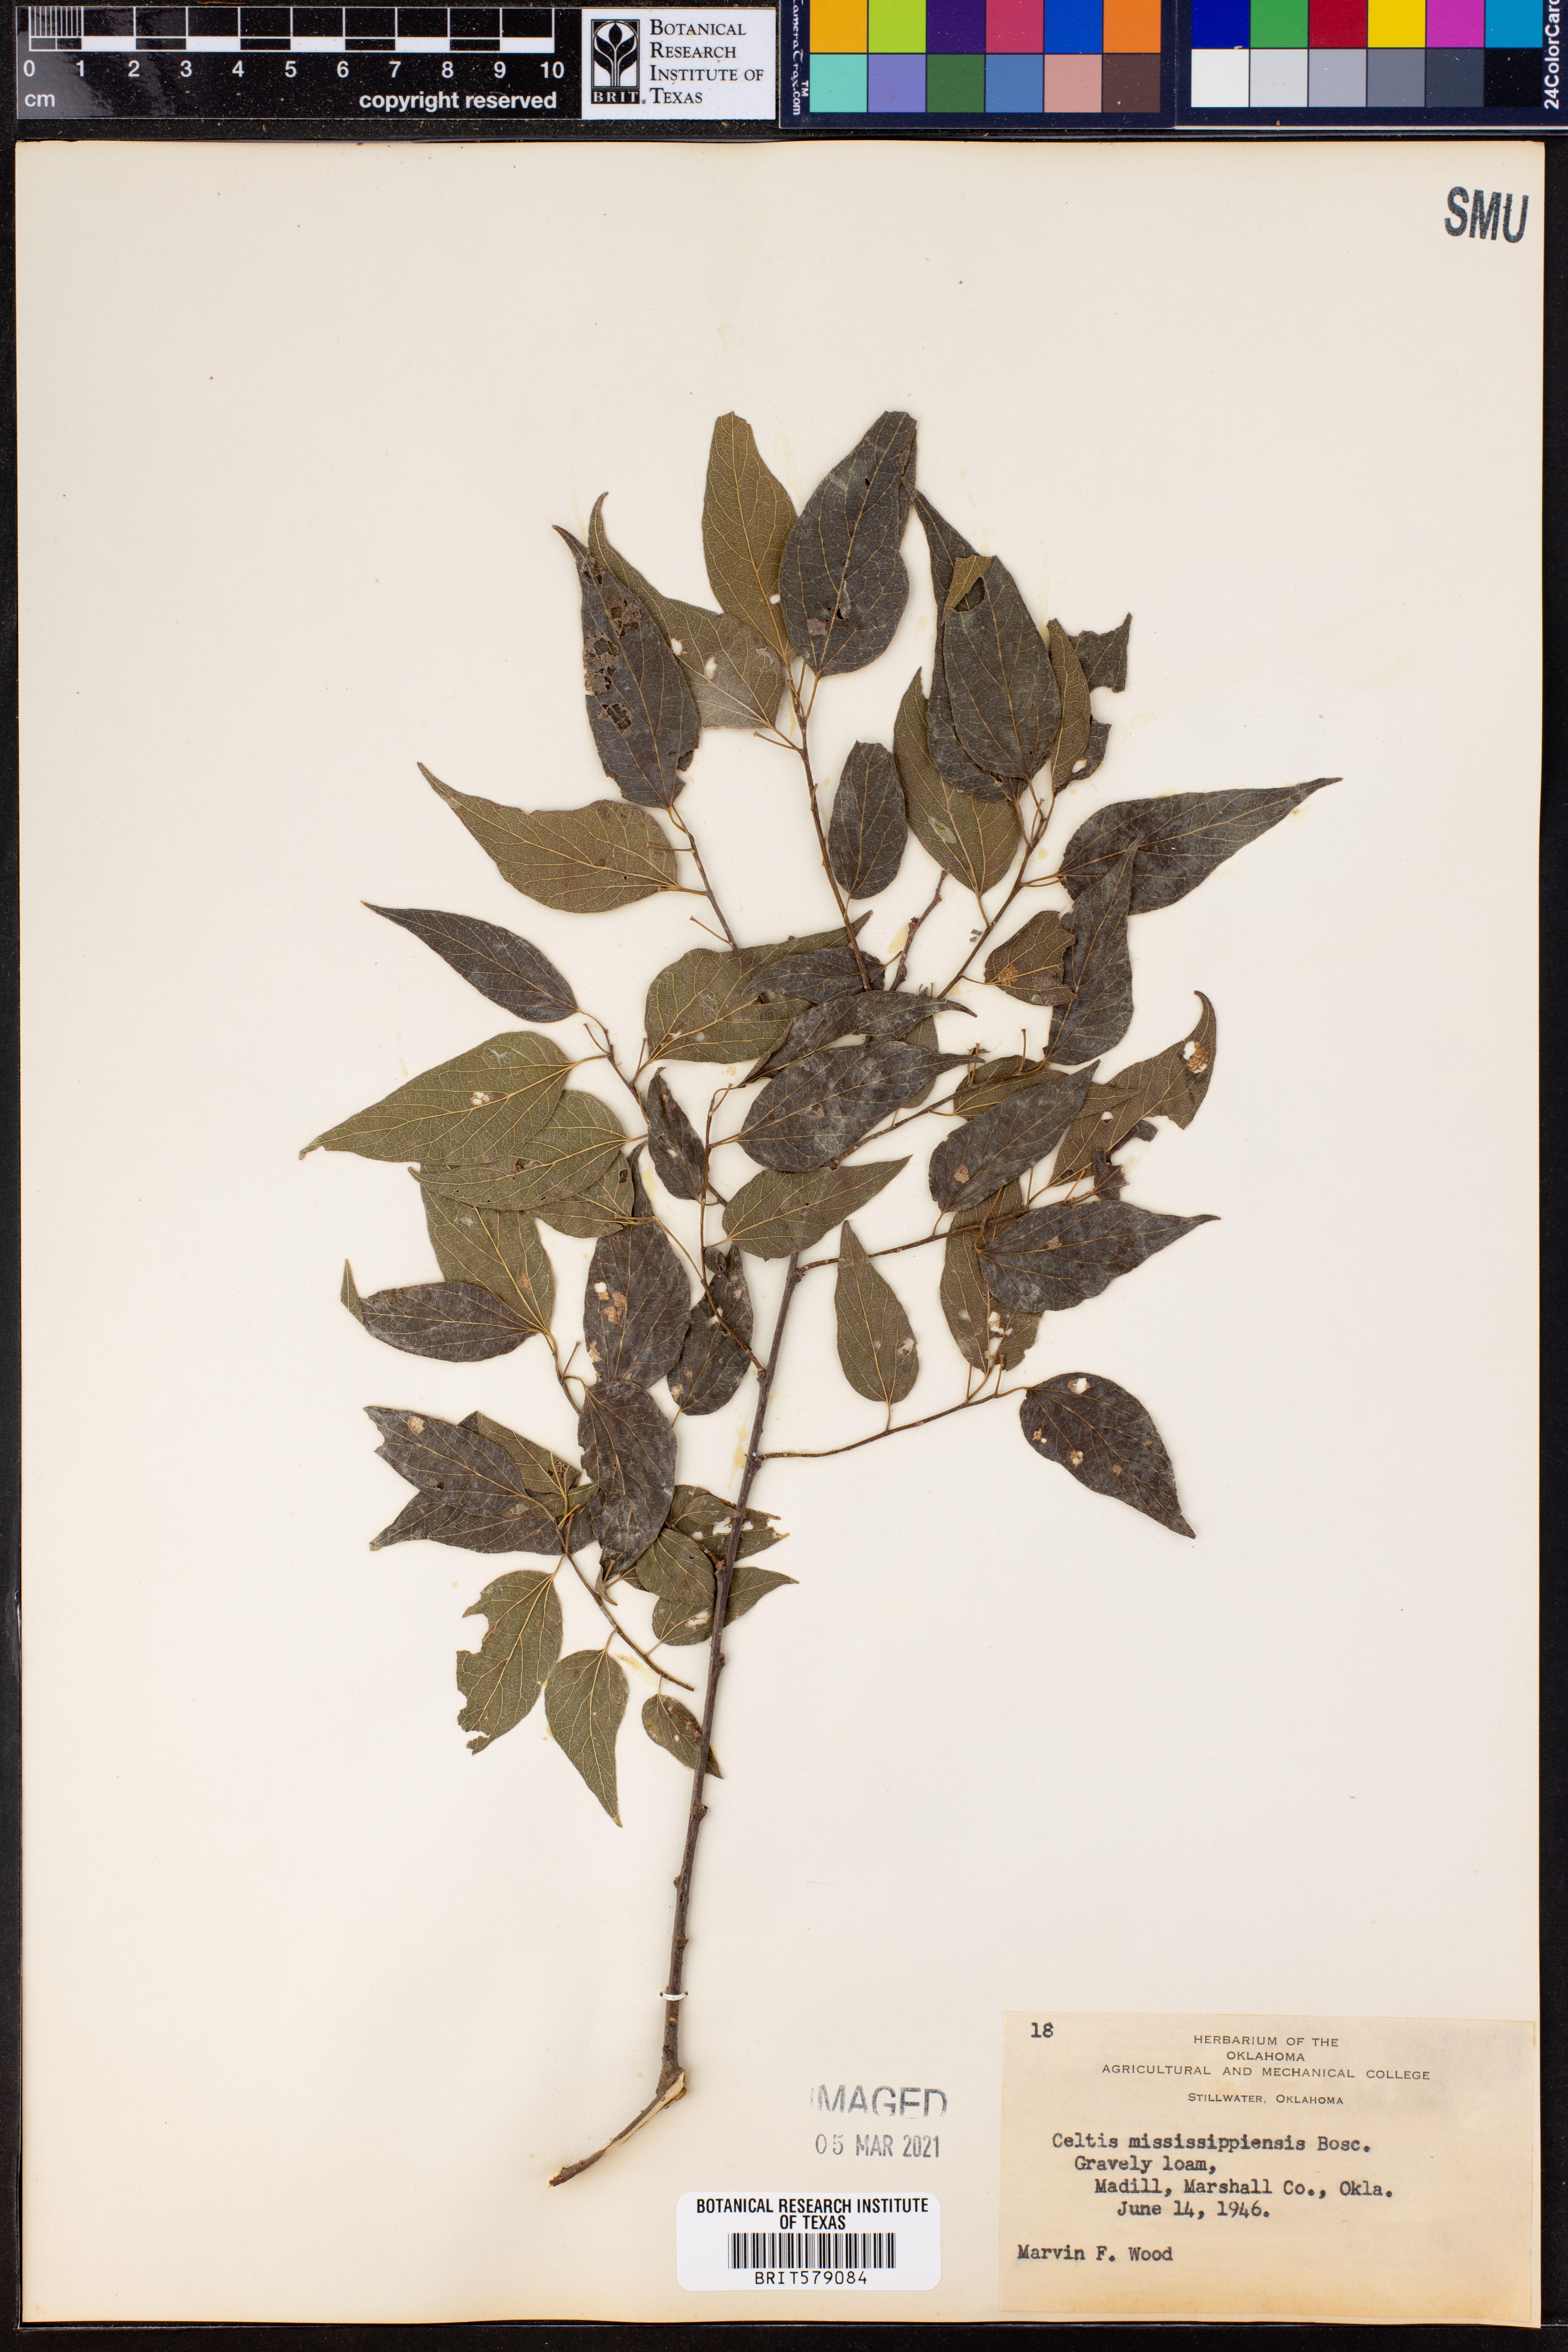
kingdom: Plantae
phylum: Tracheophyta
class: Magnoliopsida
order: Rosales
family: Cannabaceae
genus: Celtis
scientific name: Celtis
